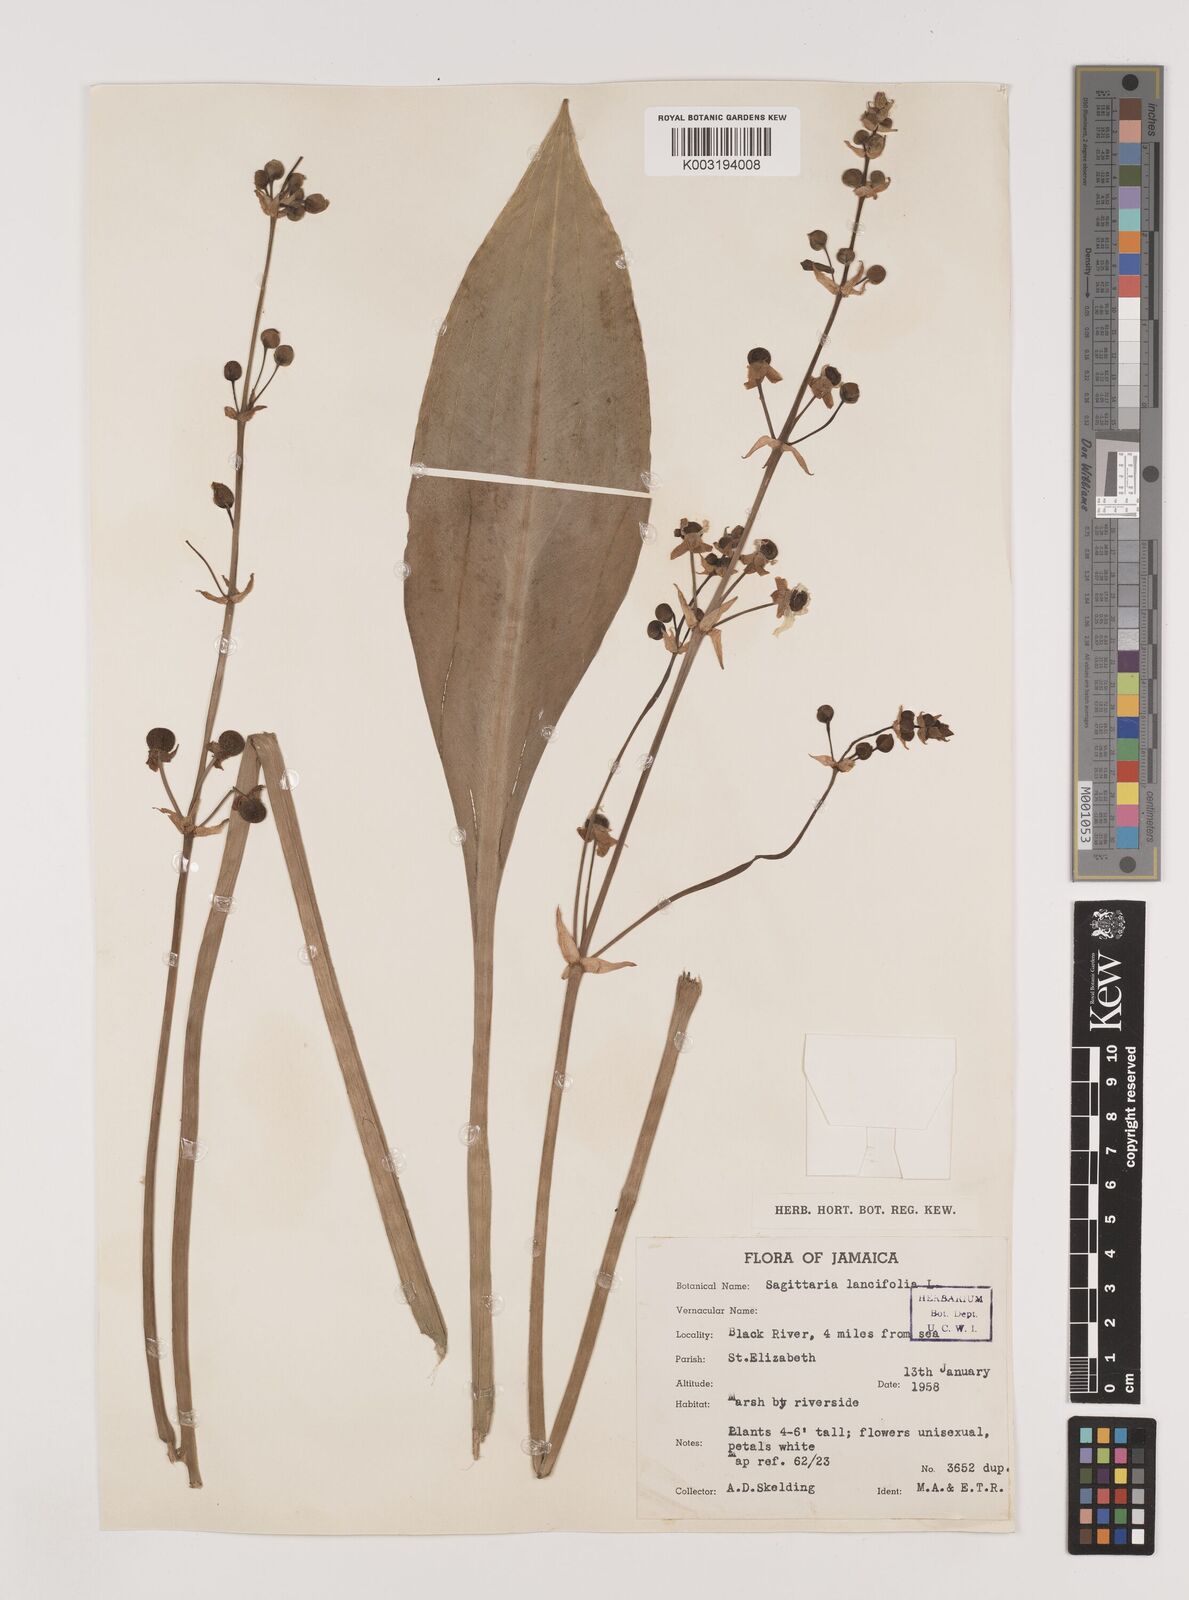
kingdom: Plantae
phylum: Tracheophyta
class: Liliopsida
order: Alismatales
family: Alismataceae
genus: Sagittaria
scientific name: Sagittaria lancifolia
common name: Lance-leaf arrowhead
